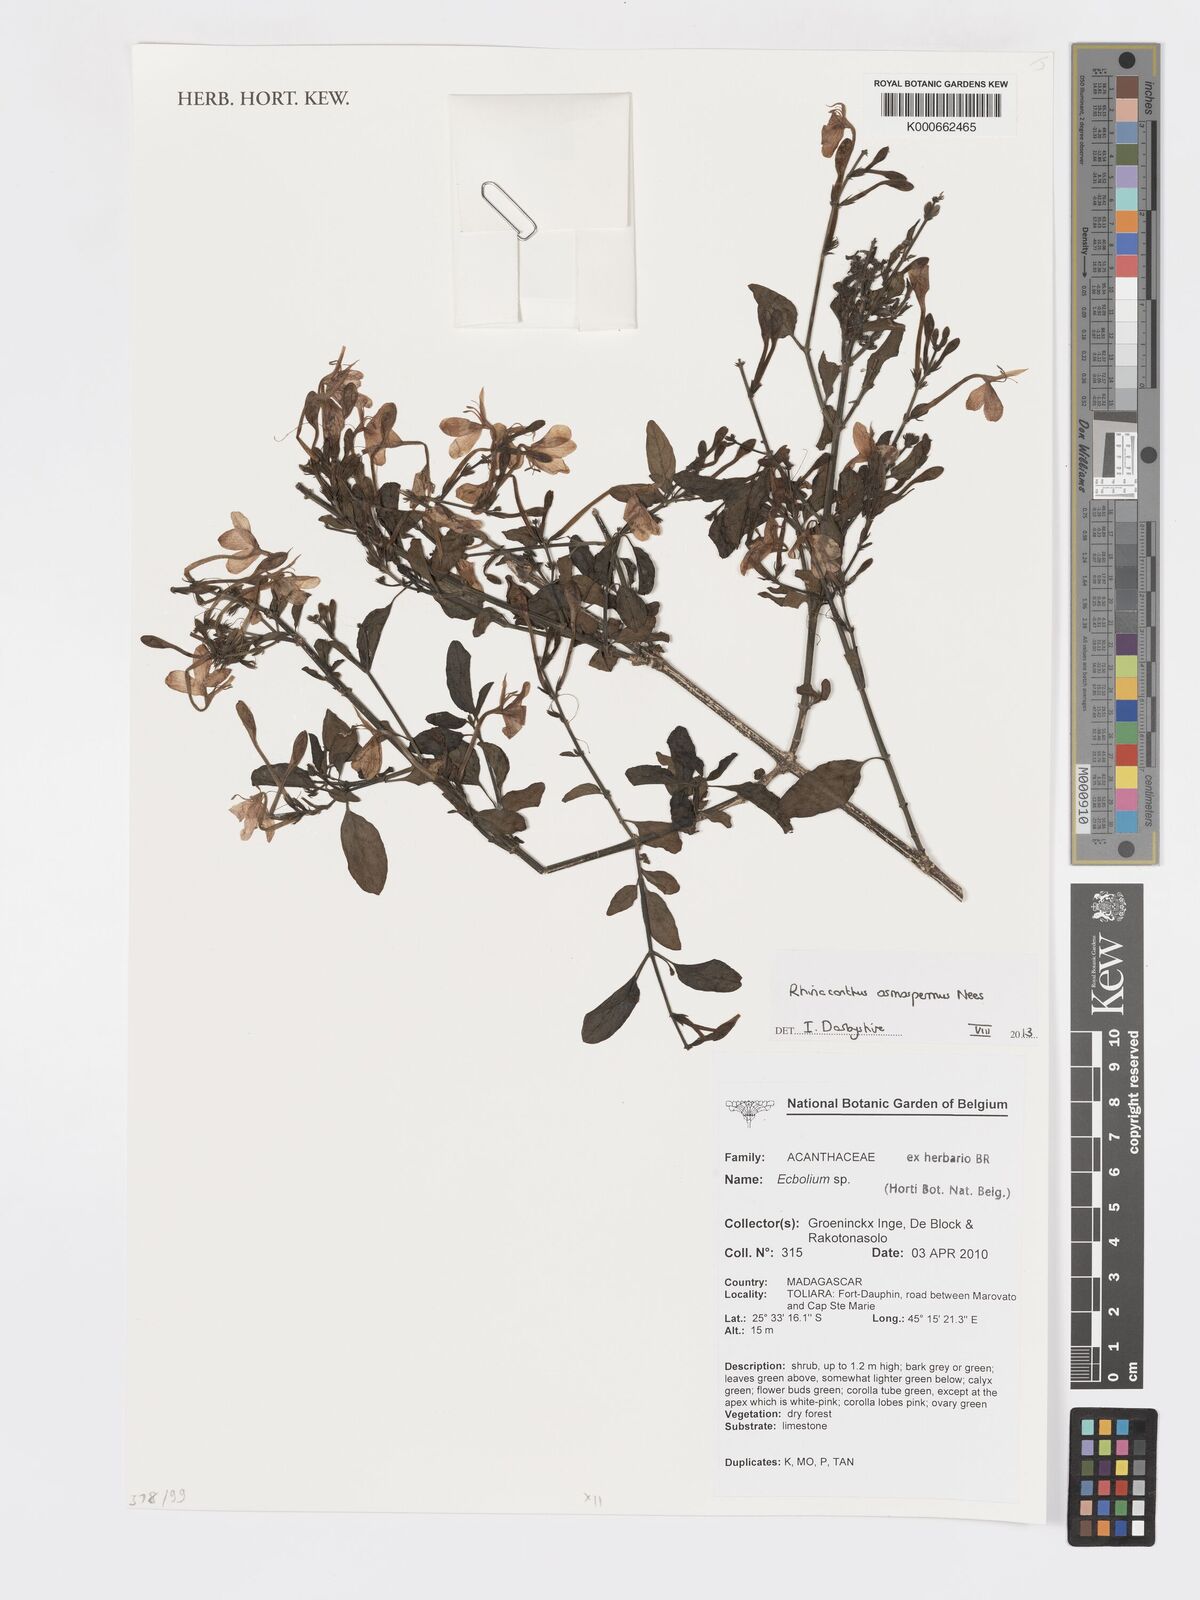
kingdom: Plantae
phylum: Tracheophyta
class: Magnoliopsida
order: Lamiales
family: Acanthaceae
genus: Rhinacanthus
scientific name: Rhinacanthus osmospermus
